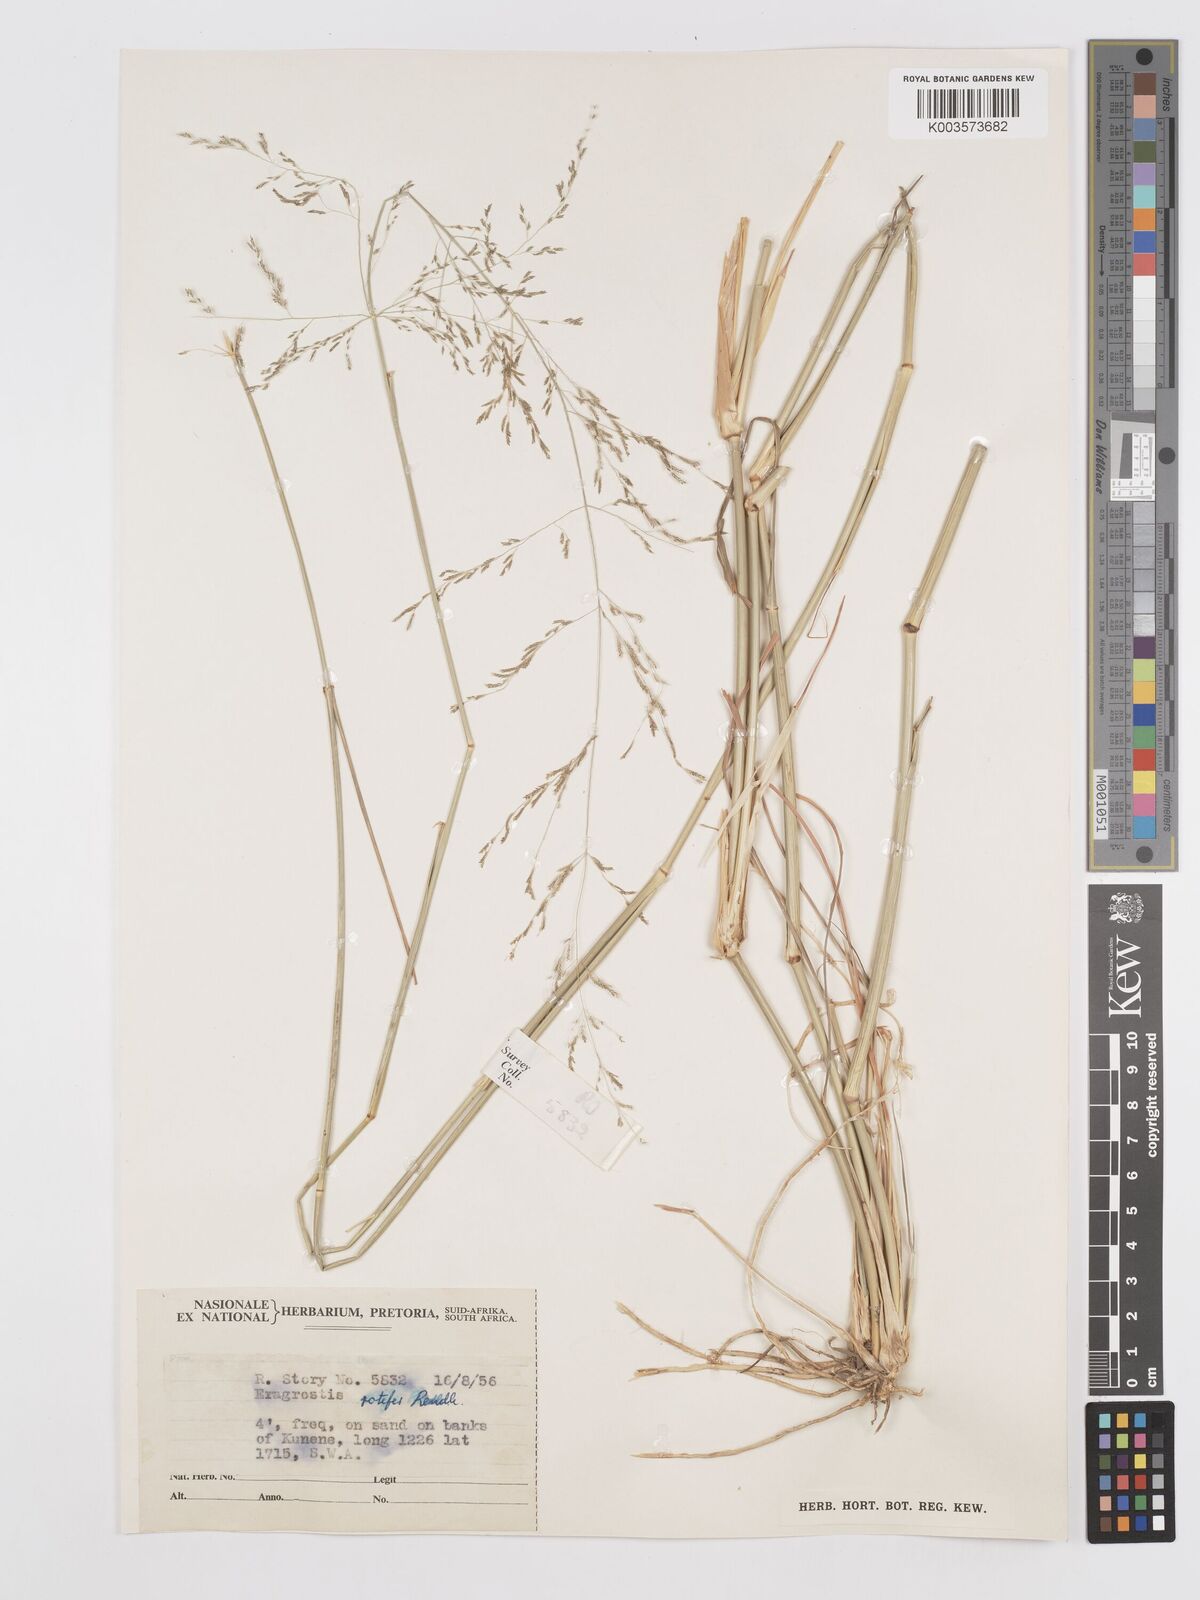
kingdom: Plantae
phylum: Tracheophyta
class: Liliopsida
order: Poales
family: Poaceae
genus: Eragrostis
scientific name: Eragrostis rotifer
